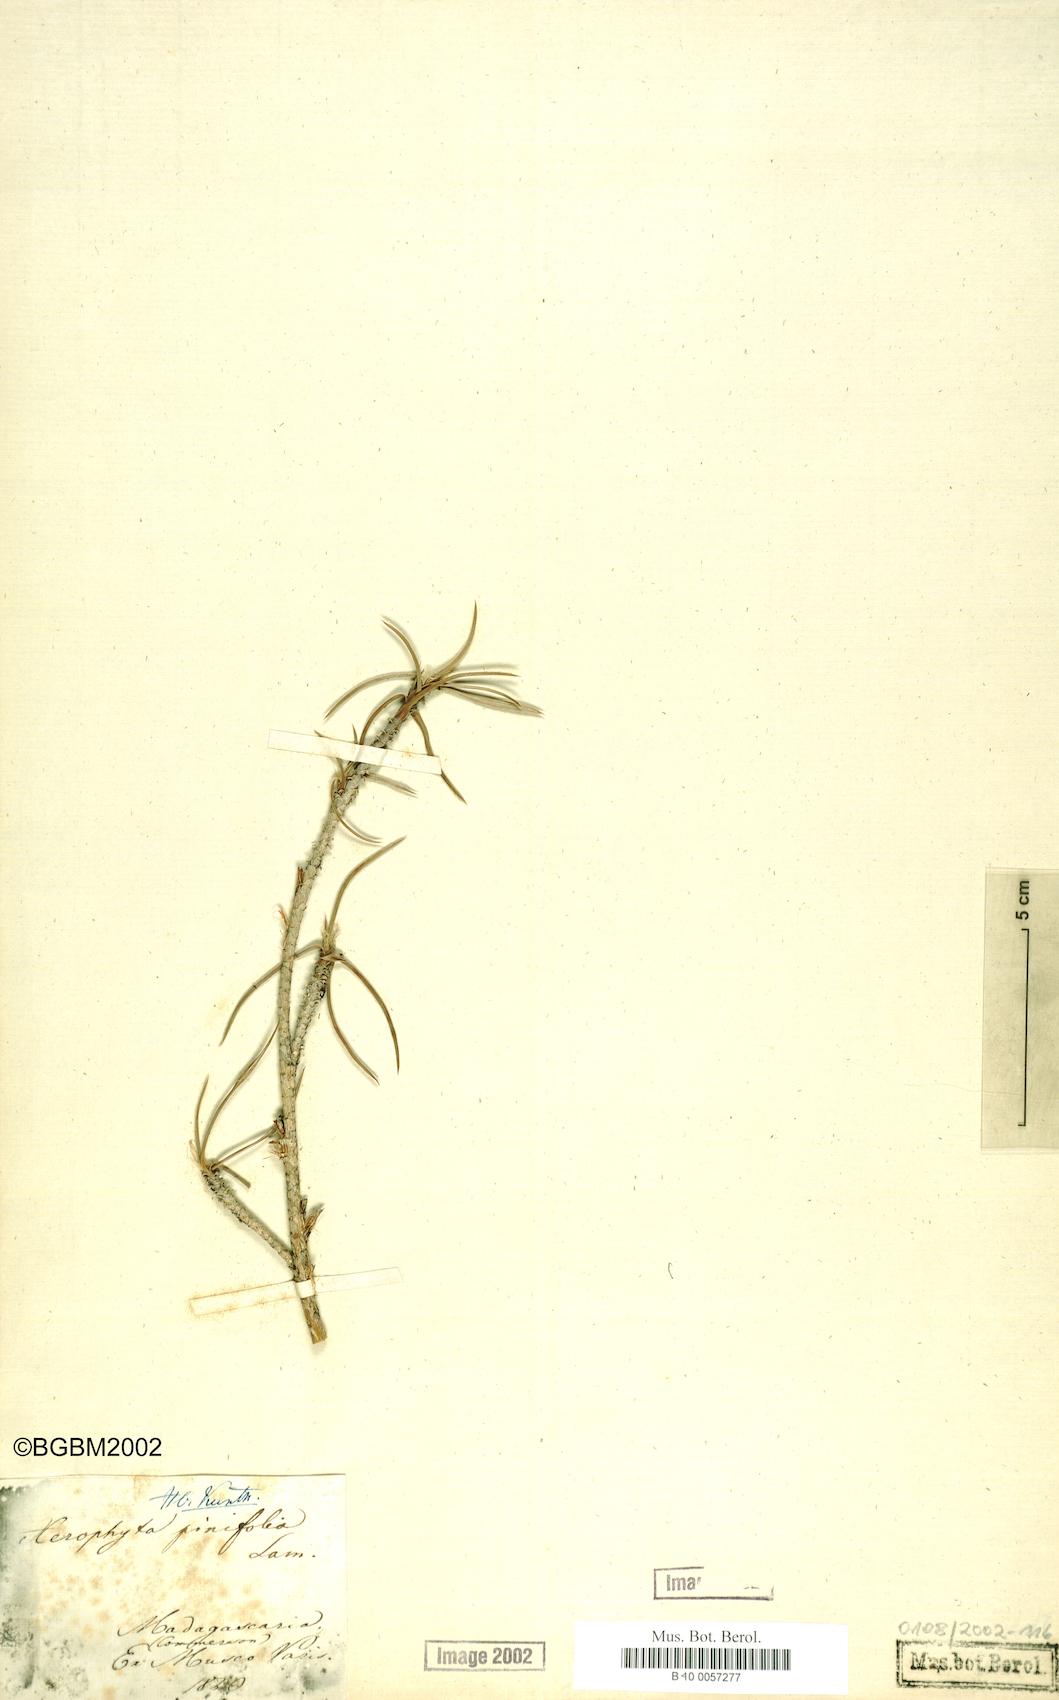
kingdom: Plantae
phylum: Tracheophyta
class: Liliopsida
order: Pandanales
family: Velloziaceae
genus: Xerophyta
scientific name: Xerophyta pinifolia
